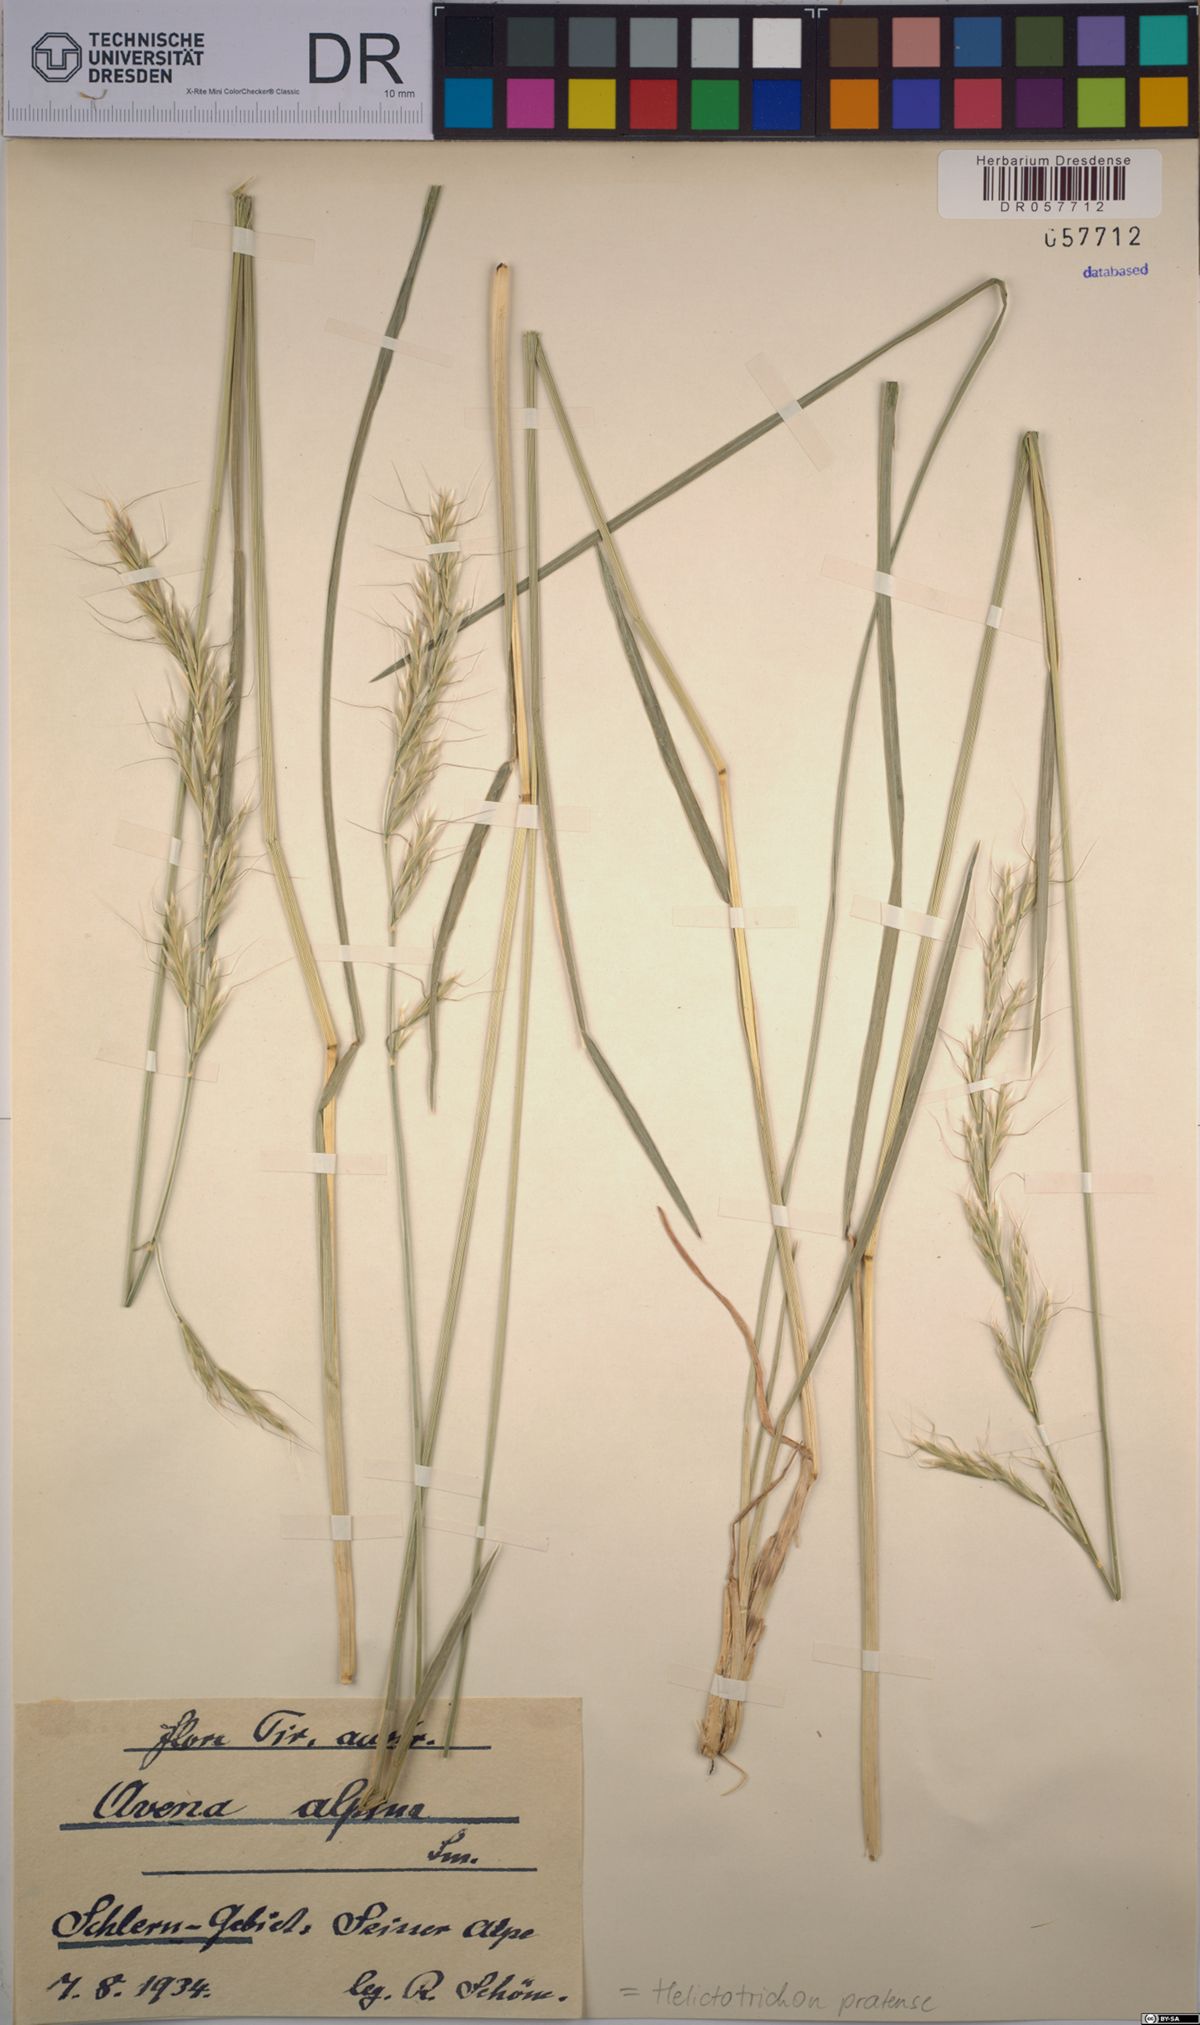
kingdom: Plantae
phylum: Tracheophyta
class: Liliopsida
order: Poales
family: Poaceae
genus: Helictochloa
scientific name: Helictochloa pratensis
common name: Meadow oat grass
